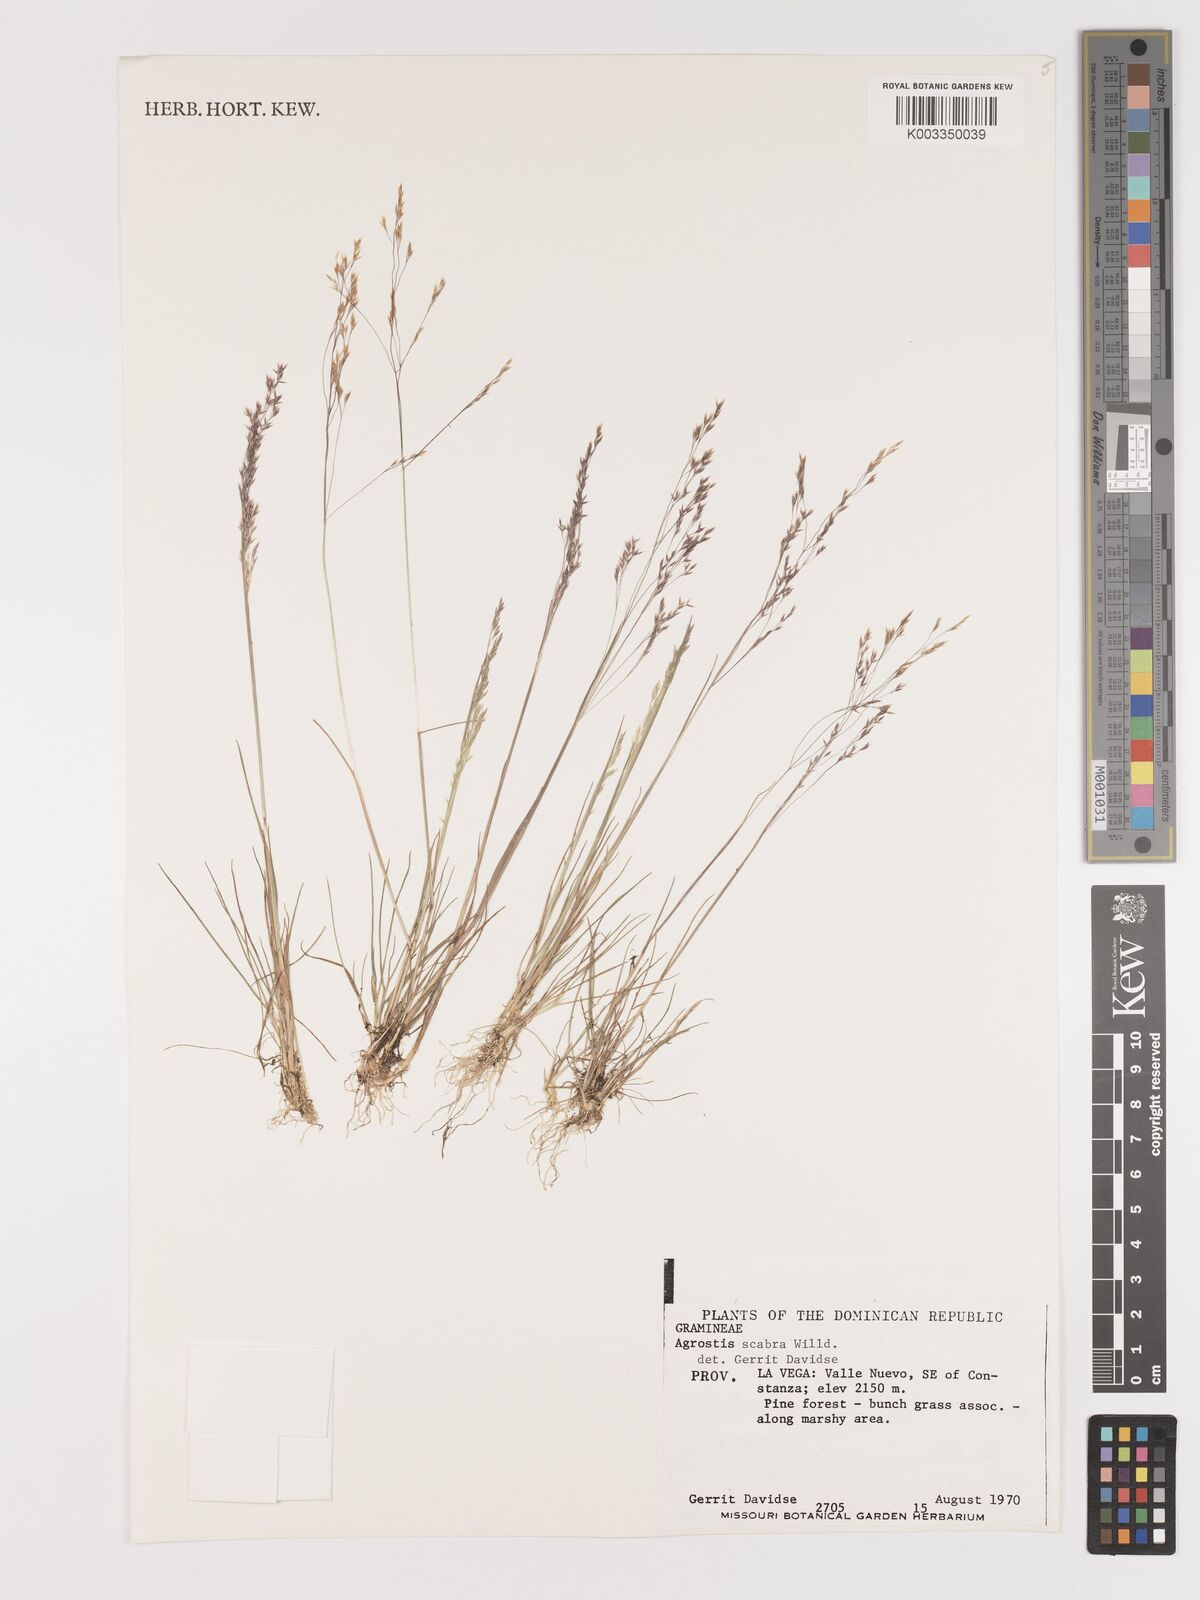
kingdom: Plantae
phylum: Tracheophyta
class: Liliopsida
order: Poales
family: Poaceae
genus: Agrostis
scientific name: Agrostis gigantea
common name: Black bent
